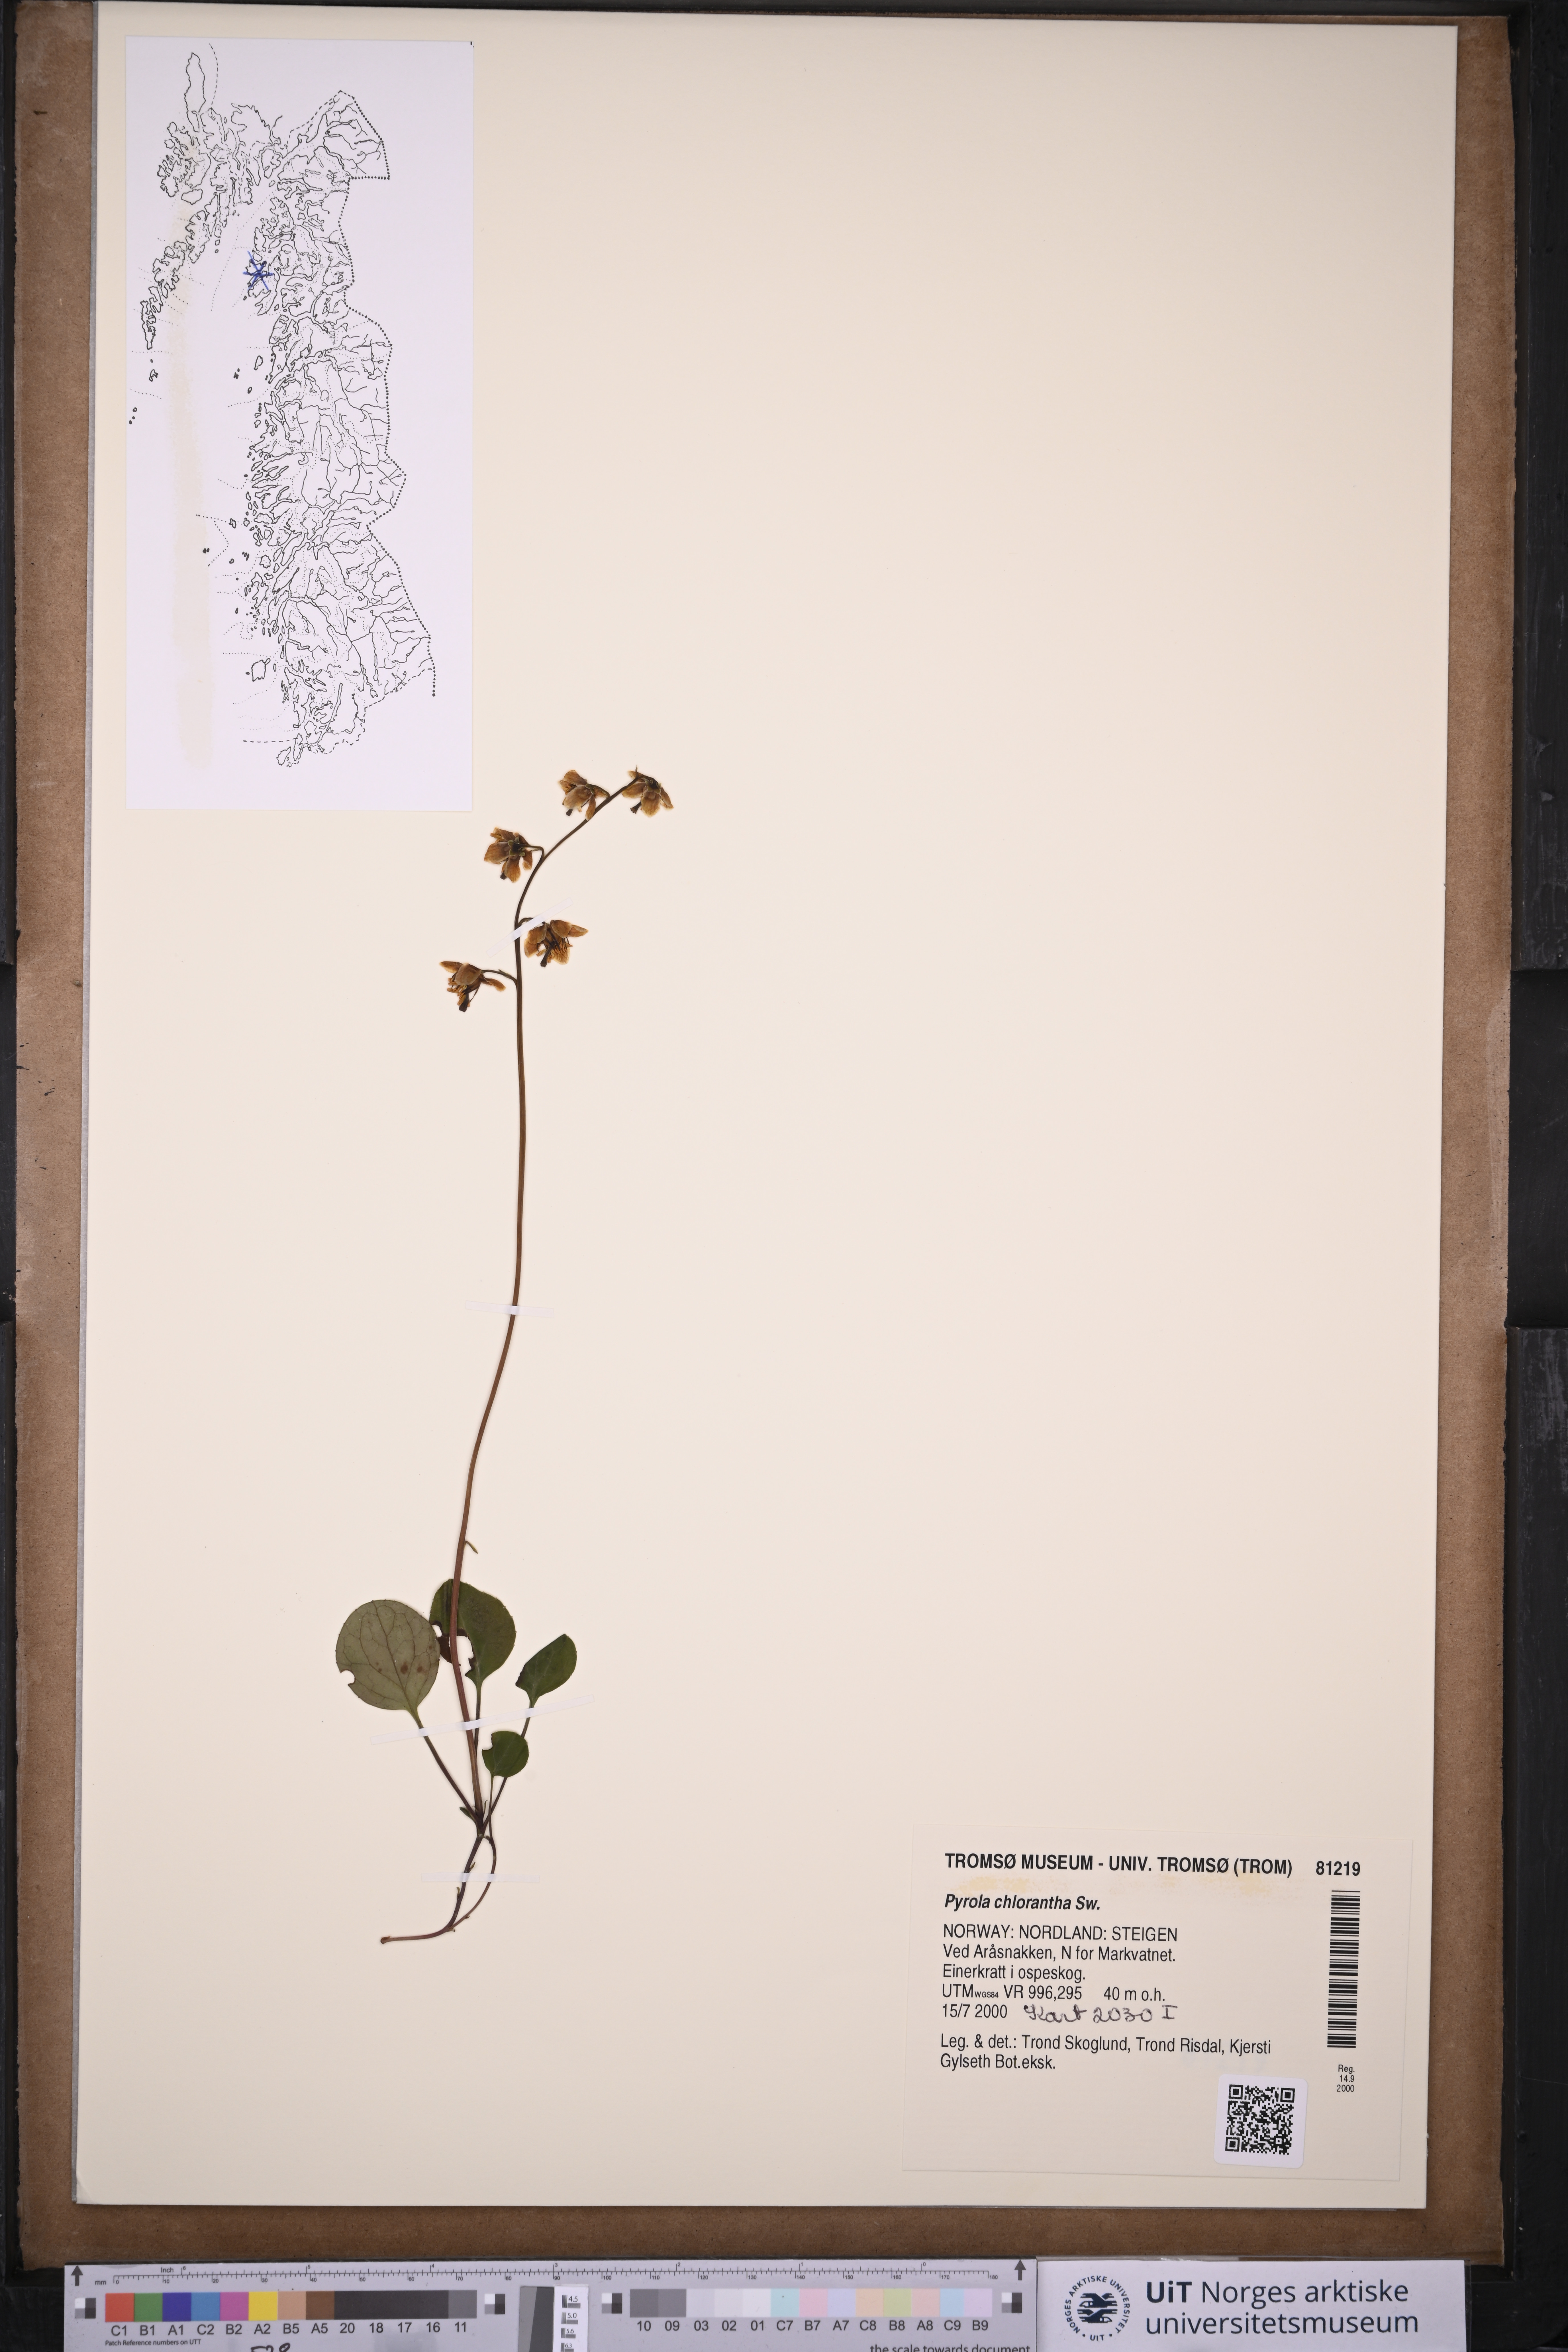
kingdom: Plantae
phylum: Tracheophyta
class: Magnoliopsida
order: Ericales
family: Ericaceae
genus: Pyrola
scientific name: Pyrola chlorantha
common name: Green wintergreen
